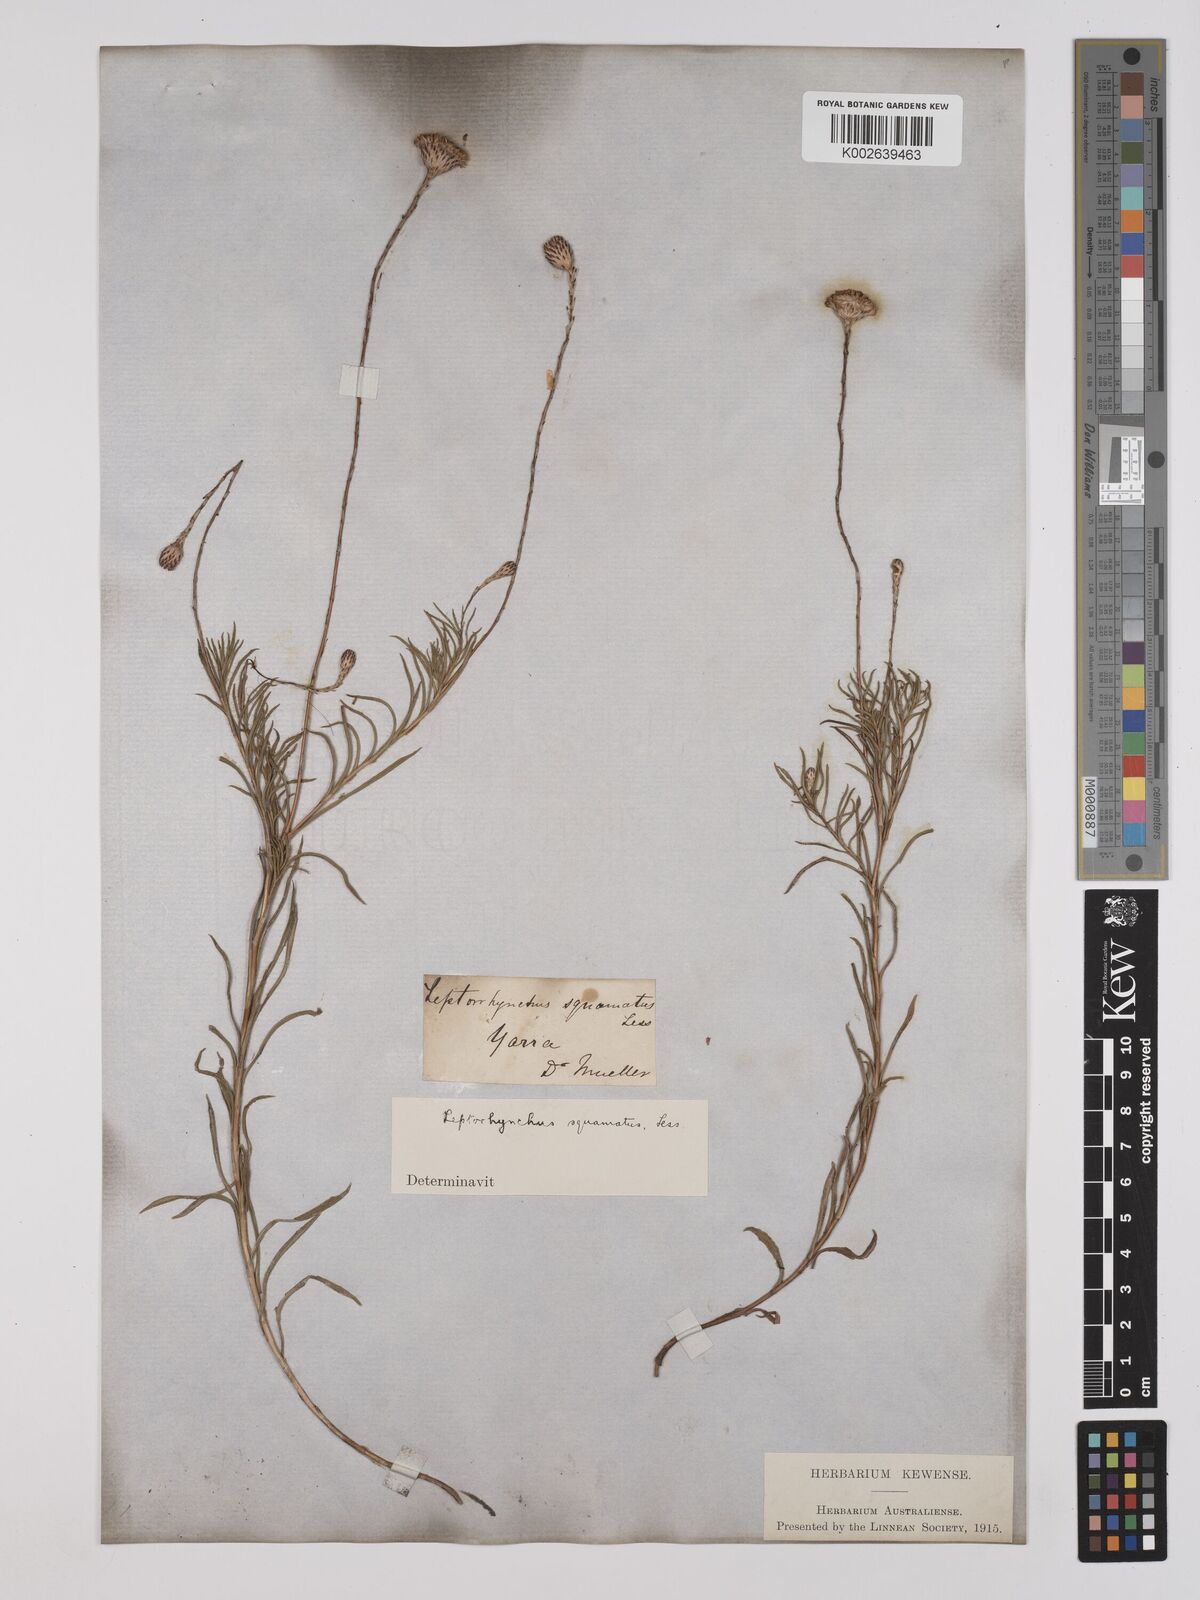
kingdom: Plantae
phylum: Tracheophyta
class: Magnoliopsida
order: Asterales
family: Asteraceae
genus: Leptorhynchos
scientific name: Leptorhynchos squamatus
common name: Scaly-buttons
